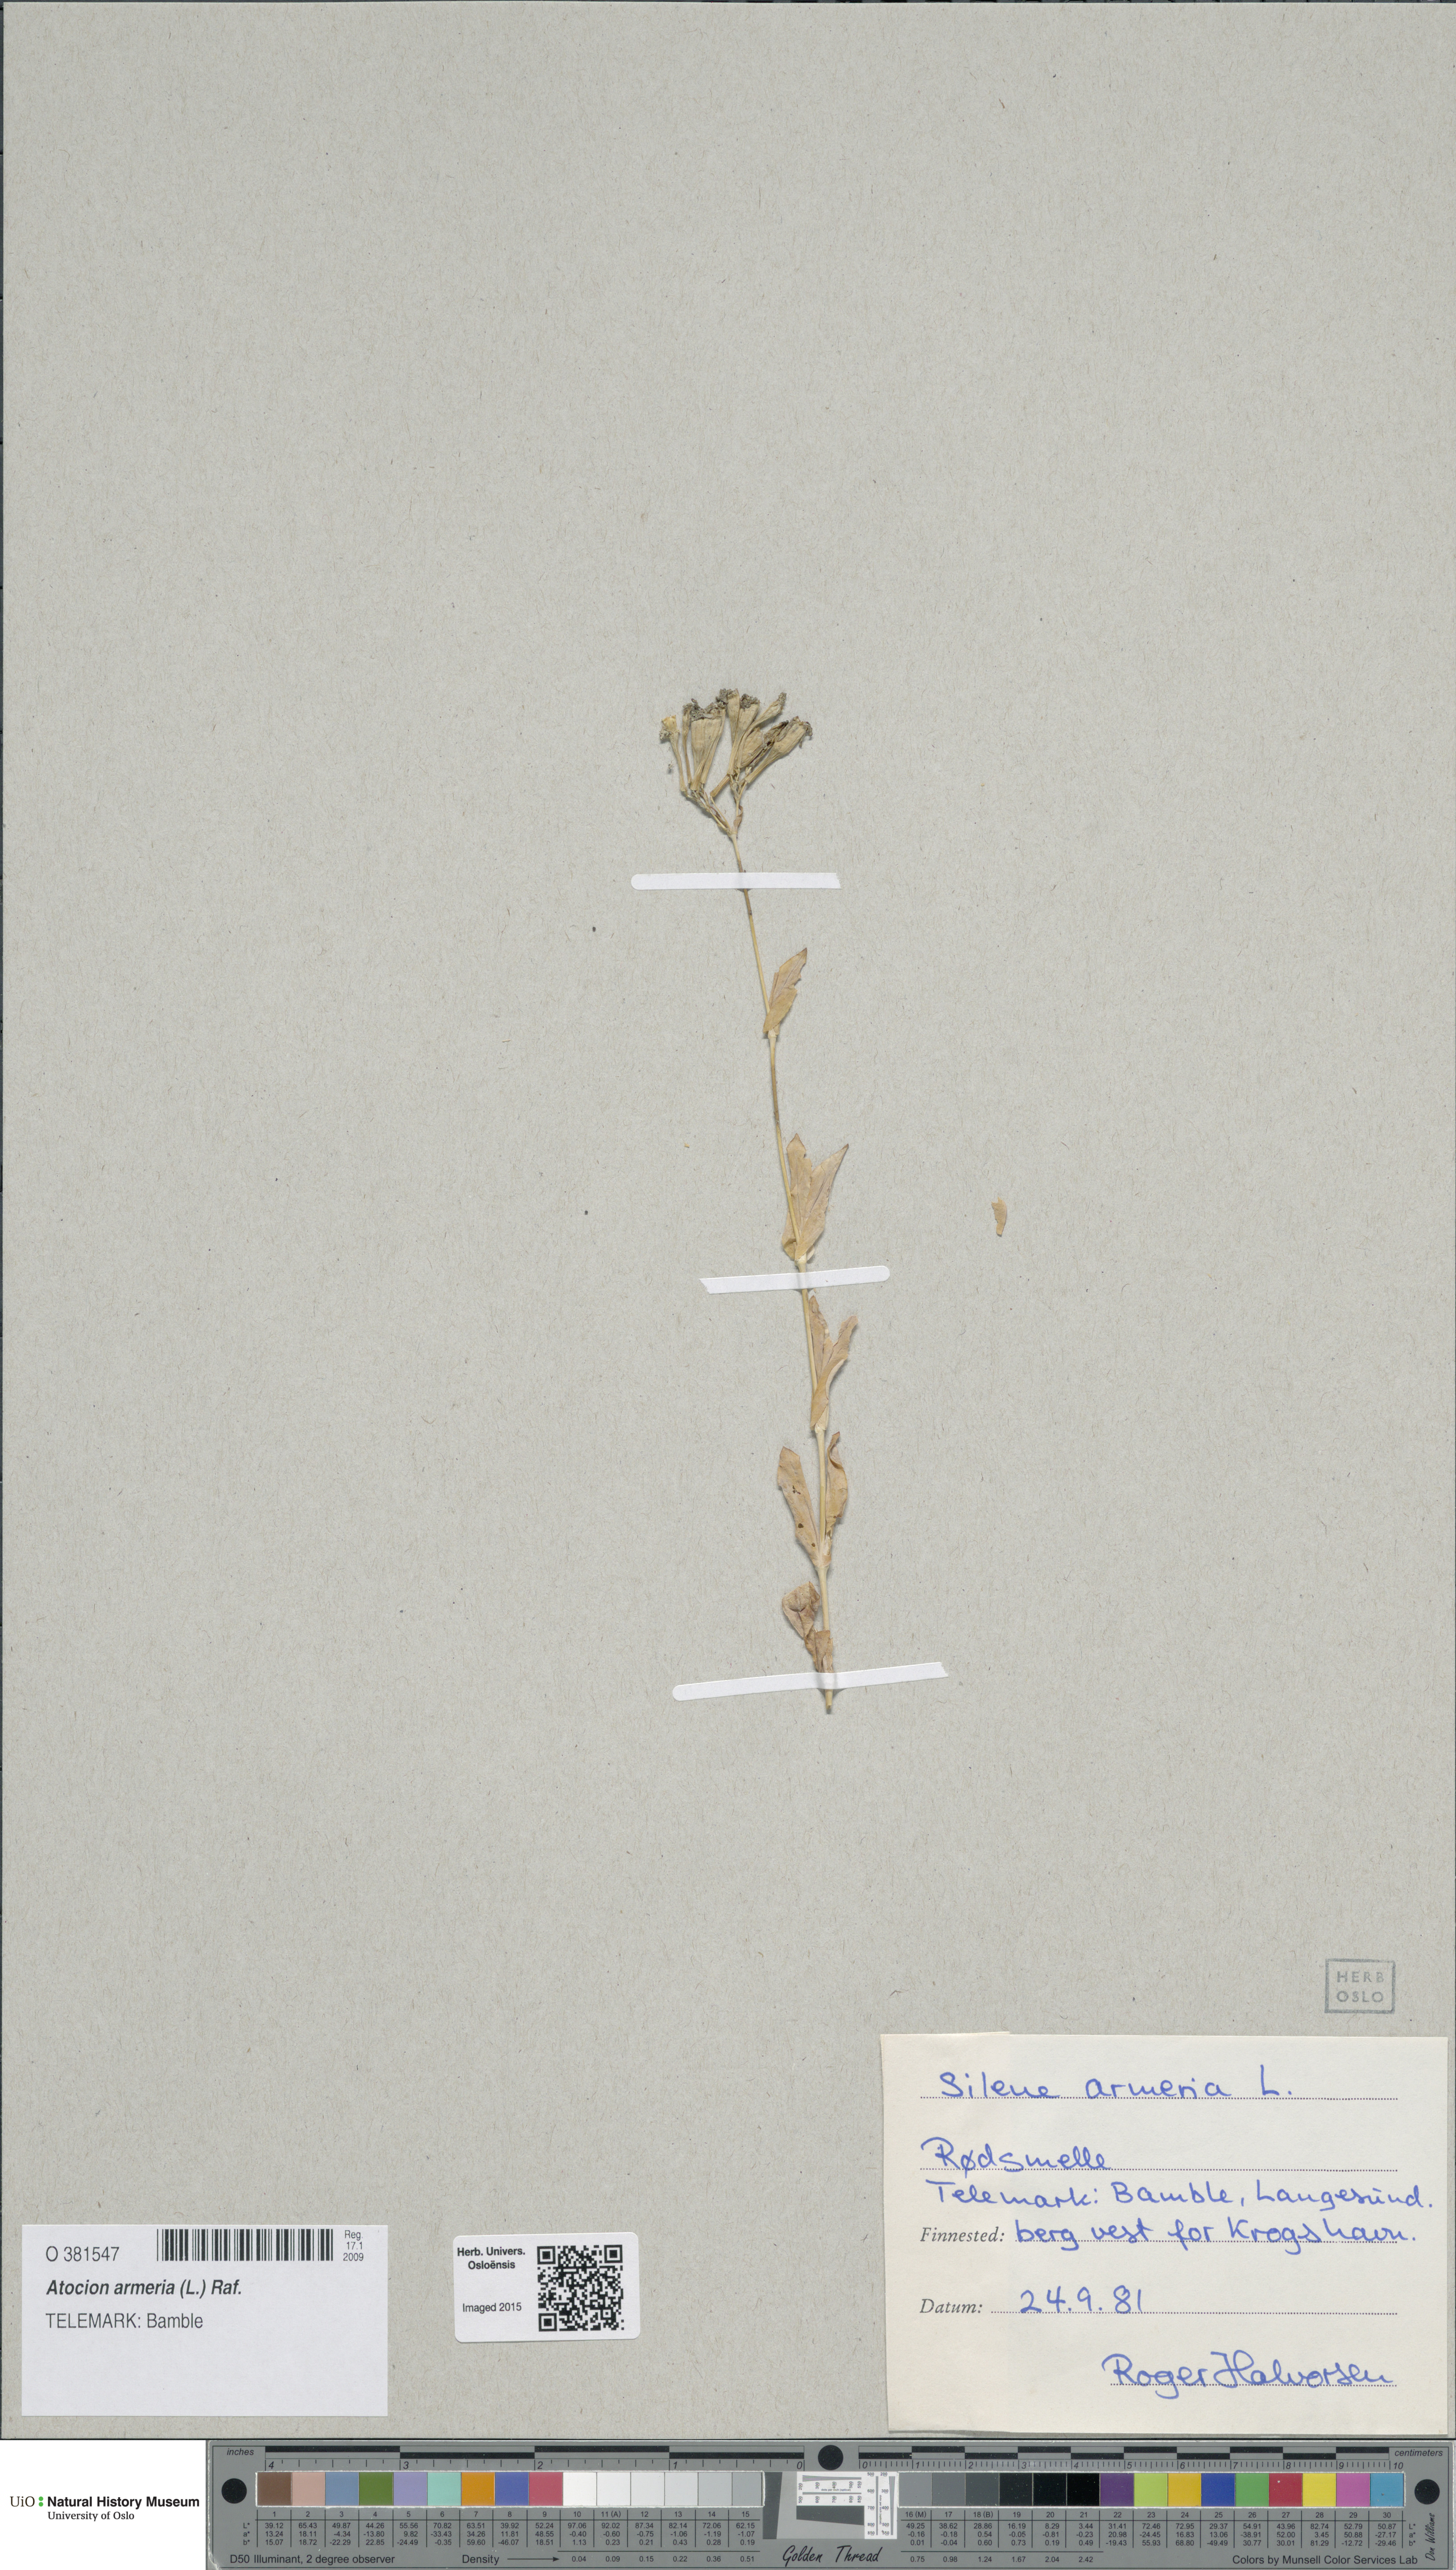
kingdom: Plantae
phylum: Tracheophyta
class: Magnoliopsida
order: Caryophyllales
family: Caryophyllaceae
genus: Atocion
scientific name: Atocion armeria
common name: Sweet william catchfly
